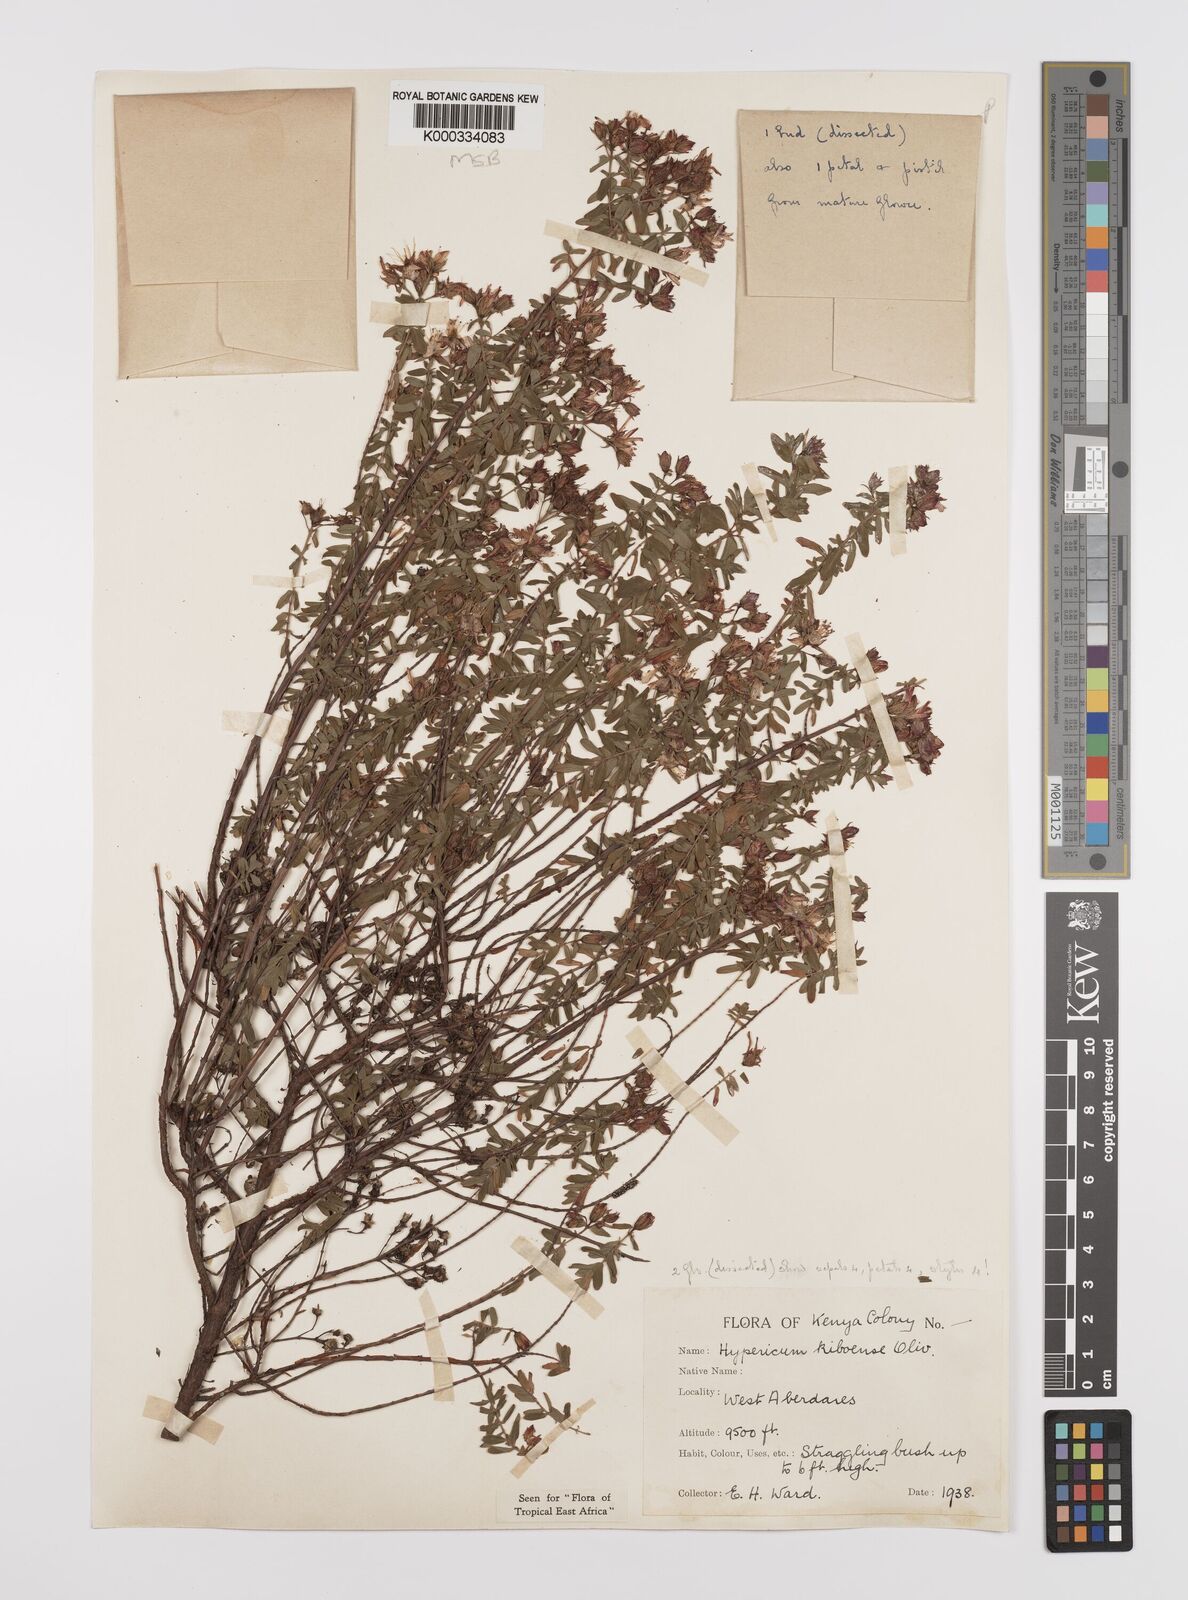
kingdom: Plantae
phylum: Tracheophyta
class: Magnoliopsida
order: Malpighiales
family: Hypericaceae
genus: Hypericum
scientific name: Hypericum kiboense
